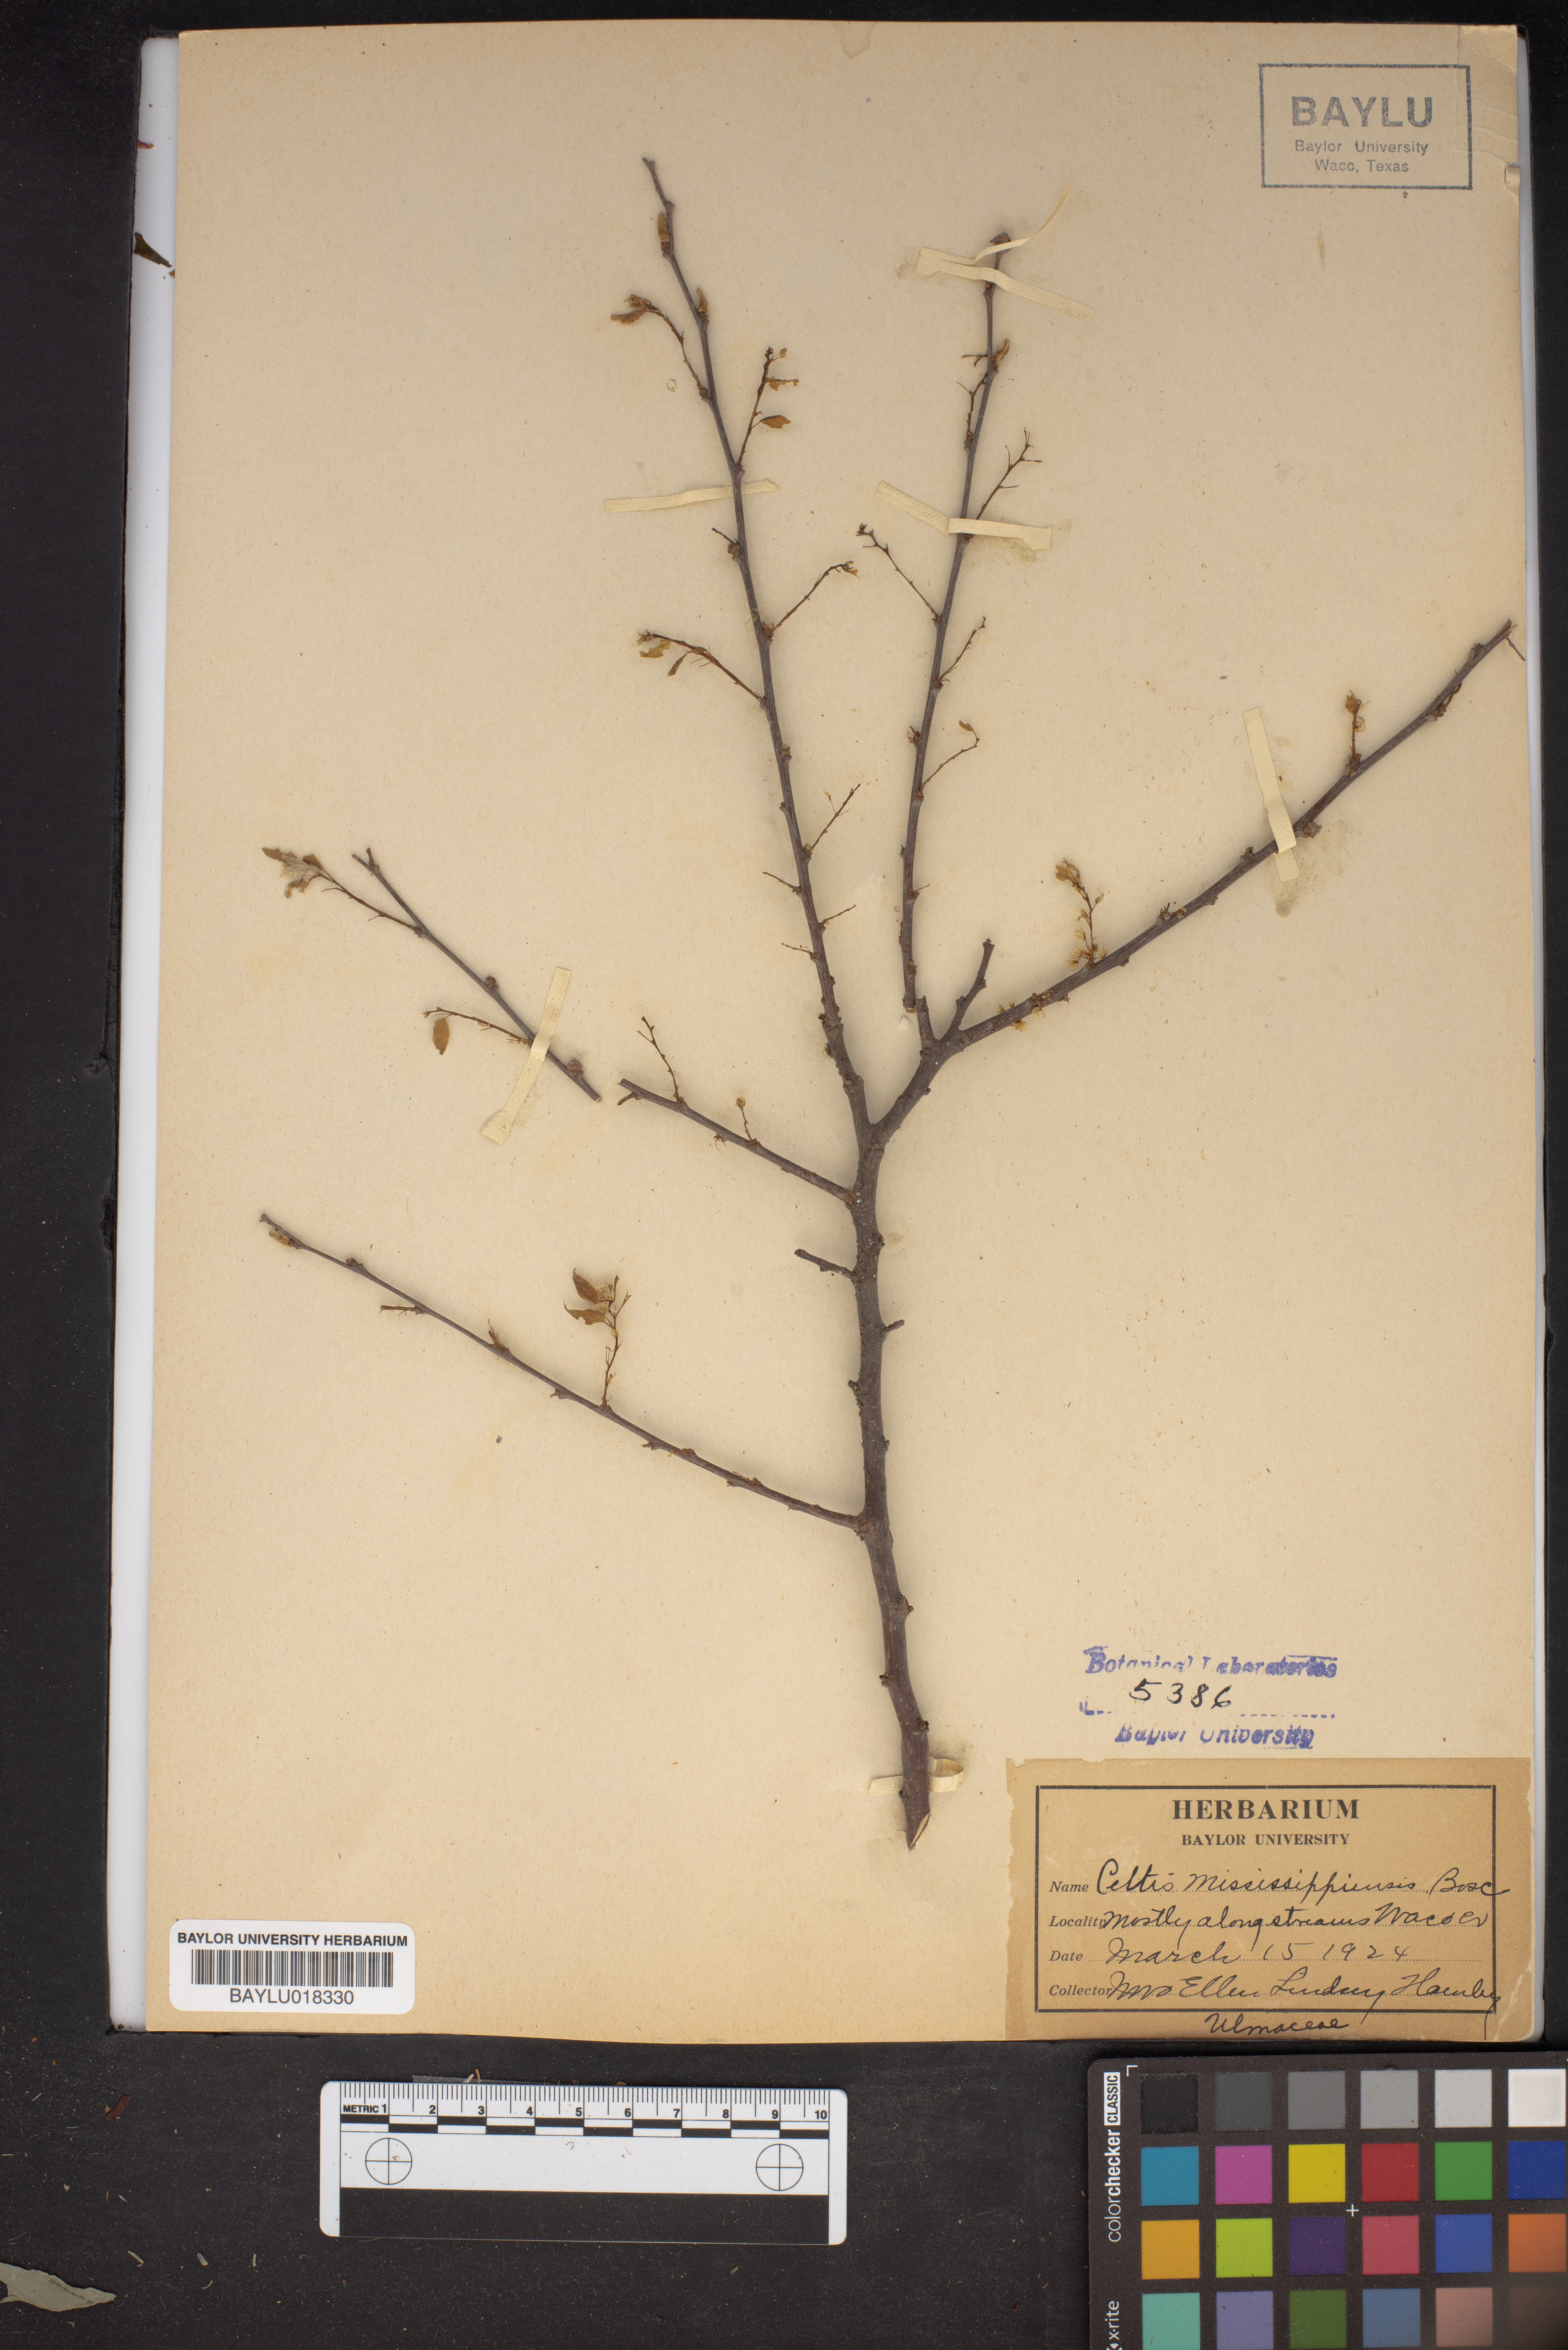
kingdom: Plantae
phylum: Tracheophyta
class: Magnoliopsida
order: Rosales
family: Cannabaceae
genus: Celtis
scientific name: Celtis
